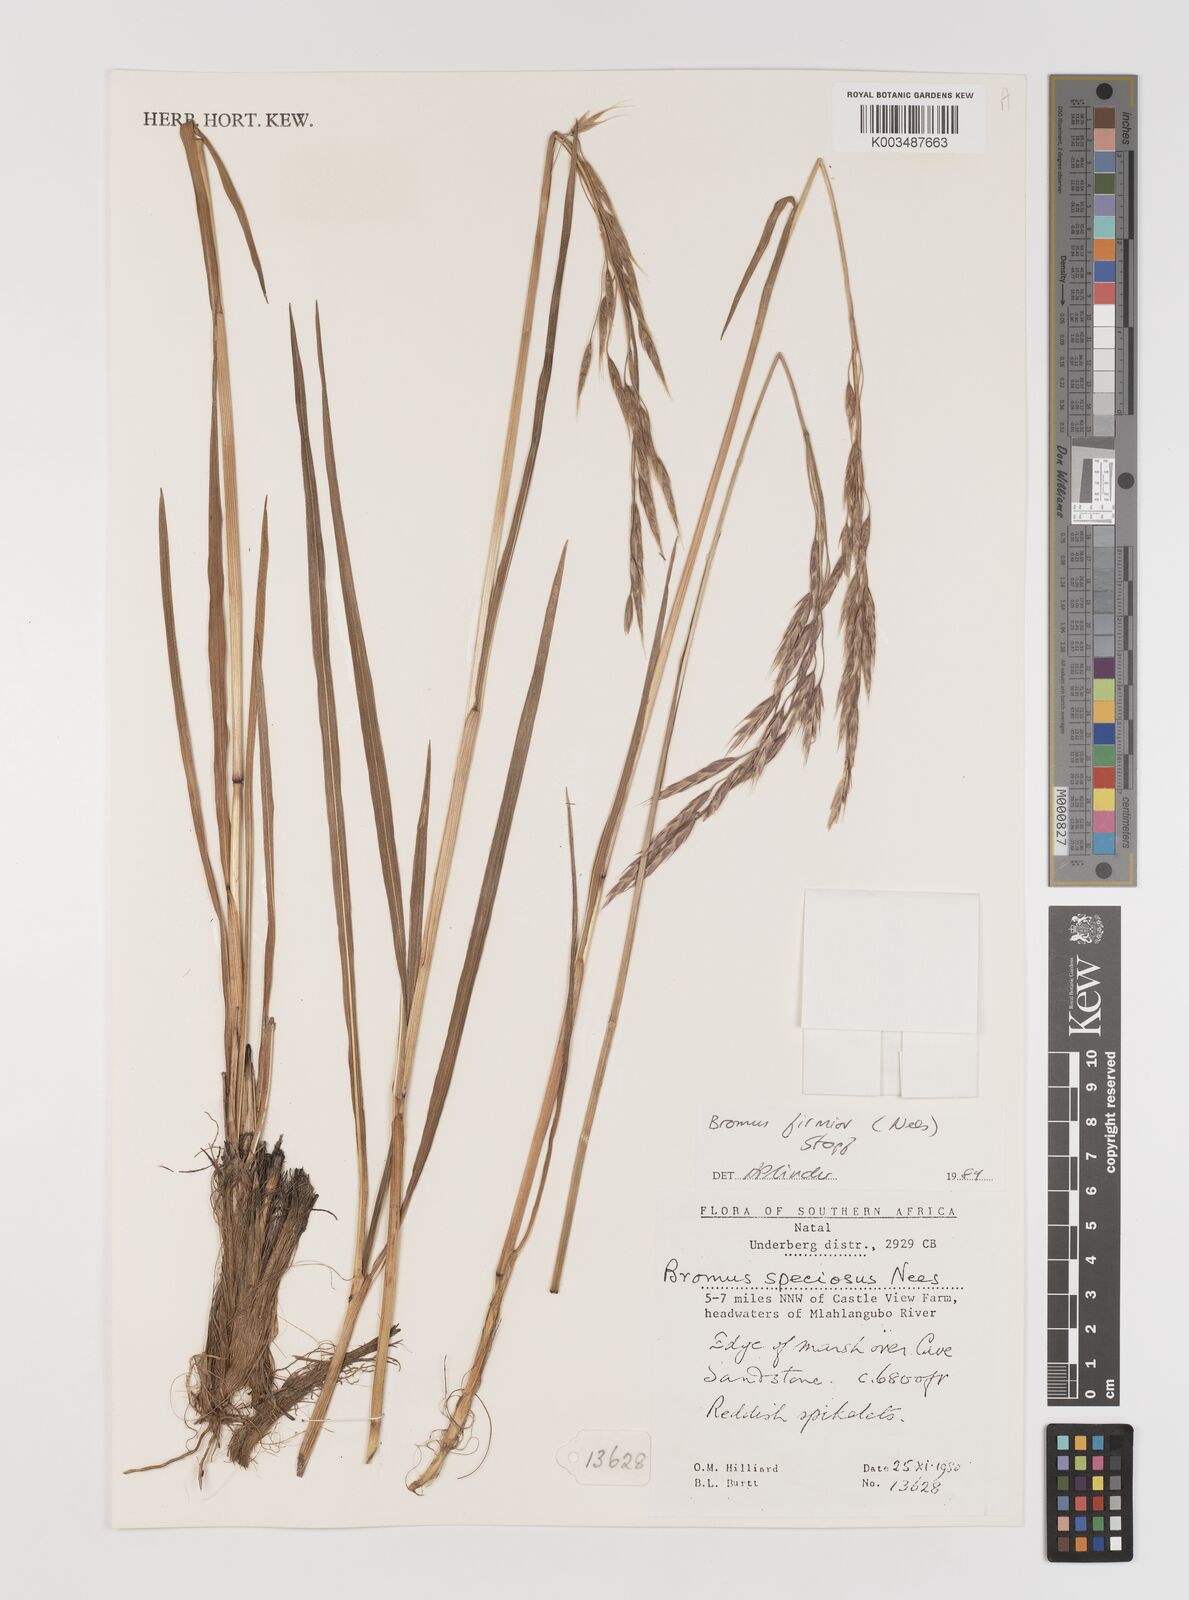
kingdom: Plantae
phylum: Tracheophyta
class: Liliopsida
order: Poales
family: Poaceae
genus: Bromus
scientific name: Bromus firmior
